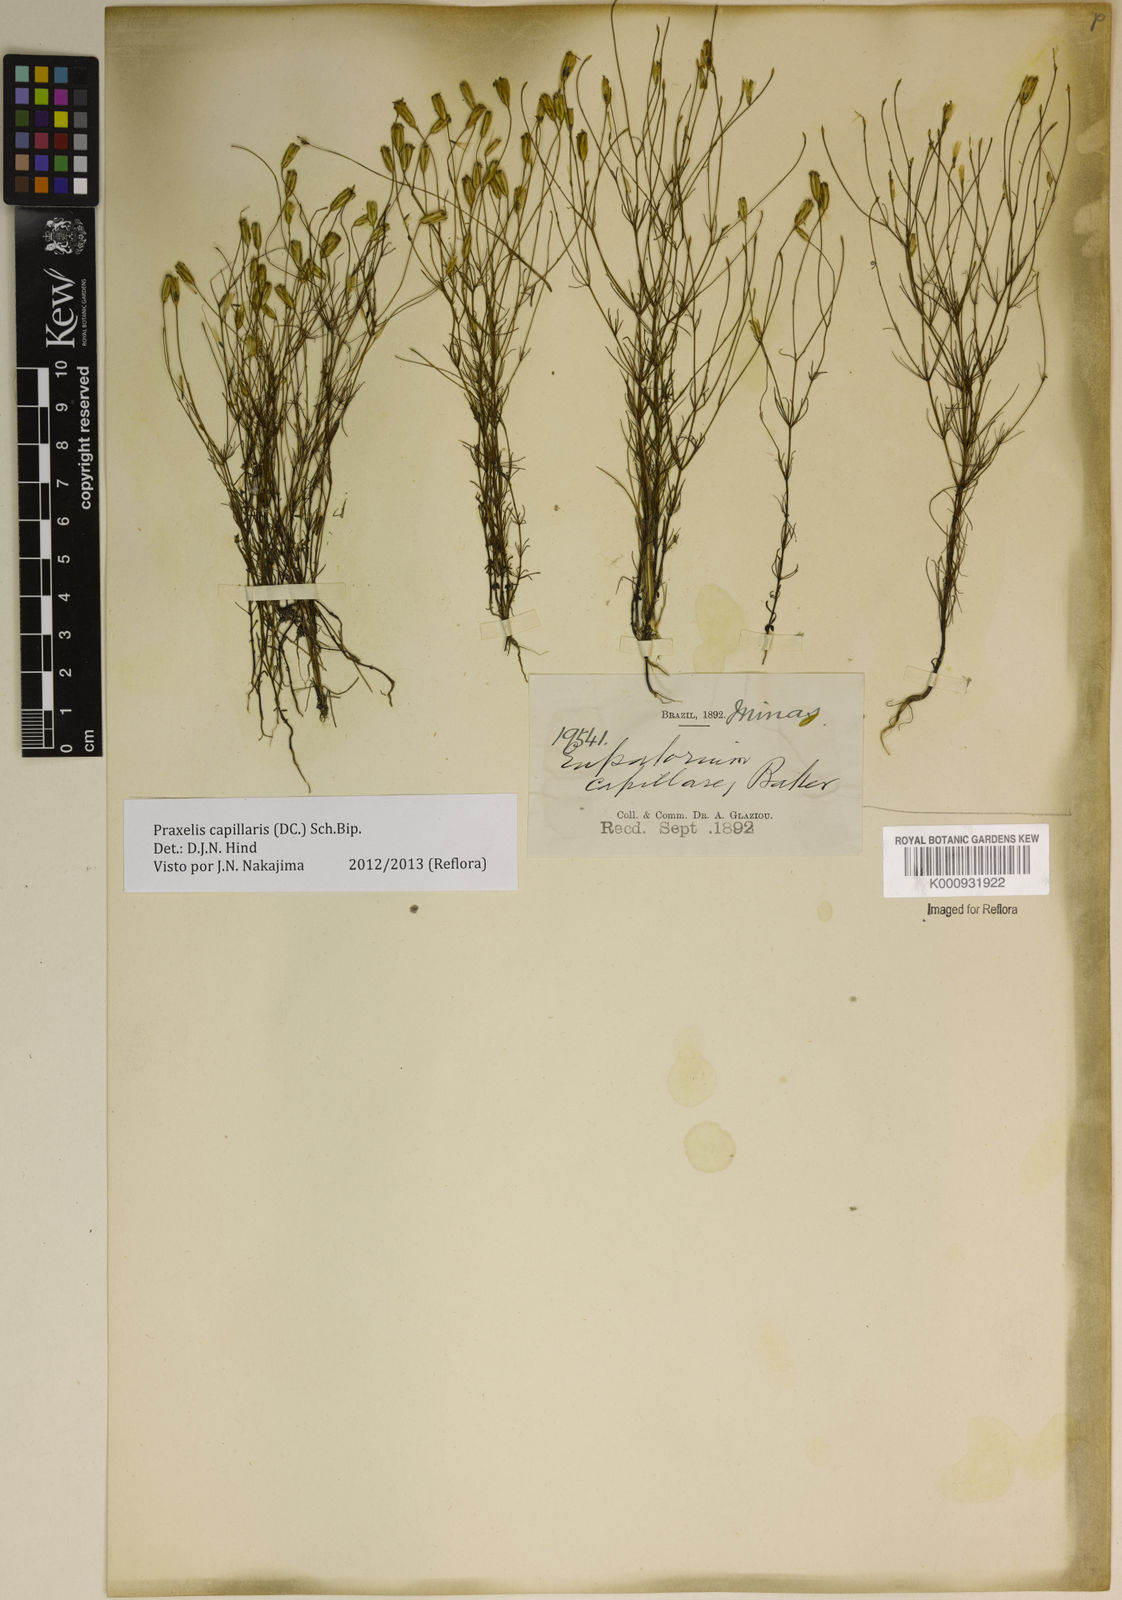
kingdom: Plantae
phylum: Tracheophyta
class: Magnoliopsida
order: Asterales
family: Asteraceae
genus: Praxelis
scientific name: Praxelis capillaris
